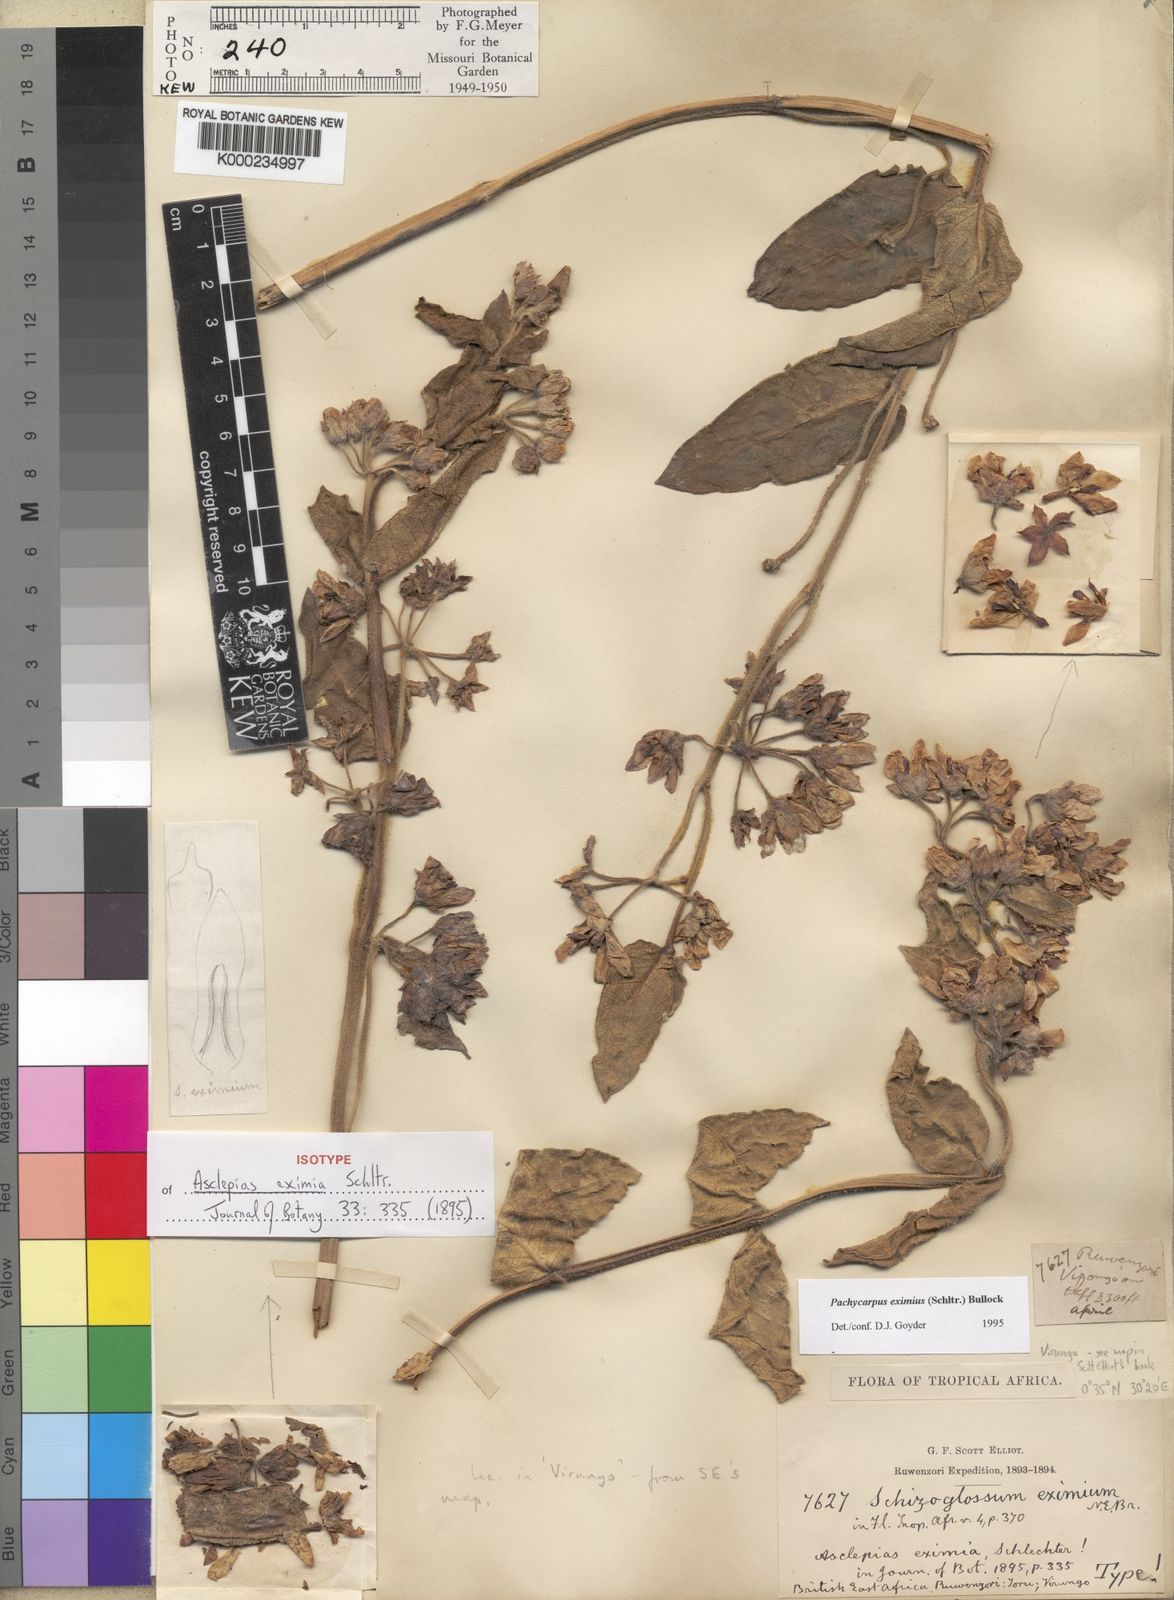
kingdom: Plantae
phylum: Tracheophyta
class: Magnoliopsida
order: Gentianales
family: Apocynaceae
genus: Pachycarpus
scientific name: Pachycarpus eximius
